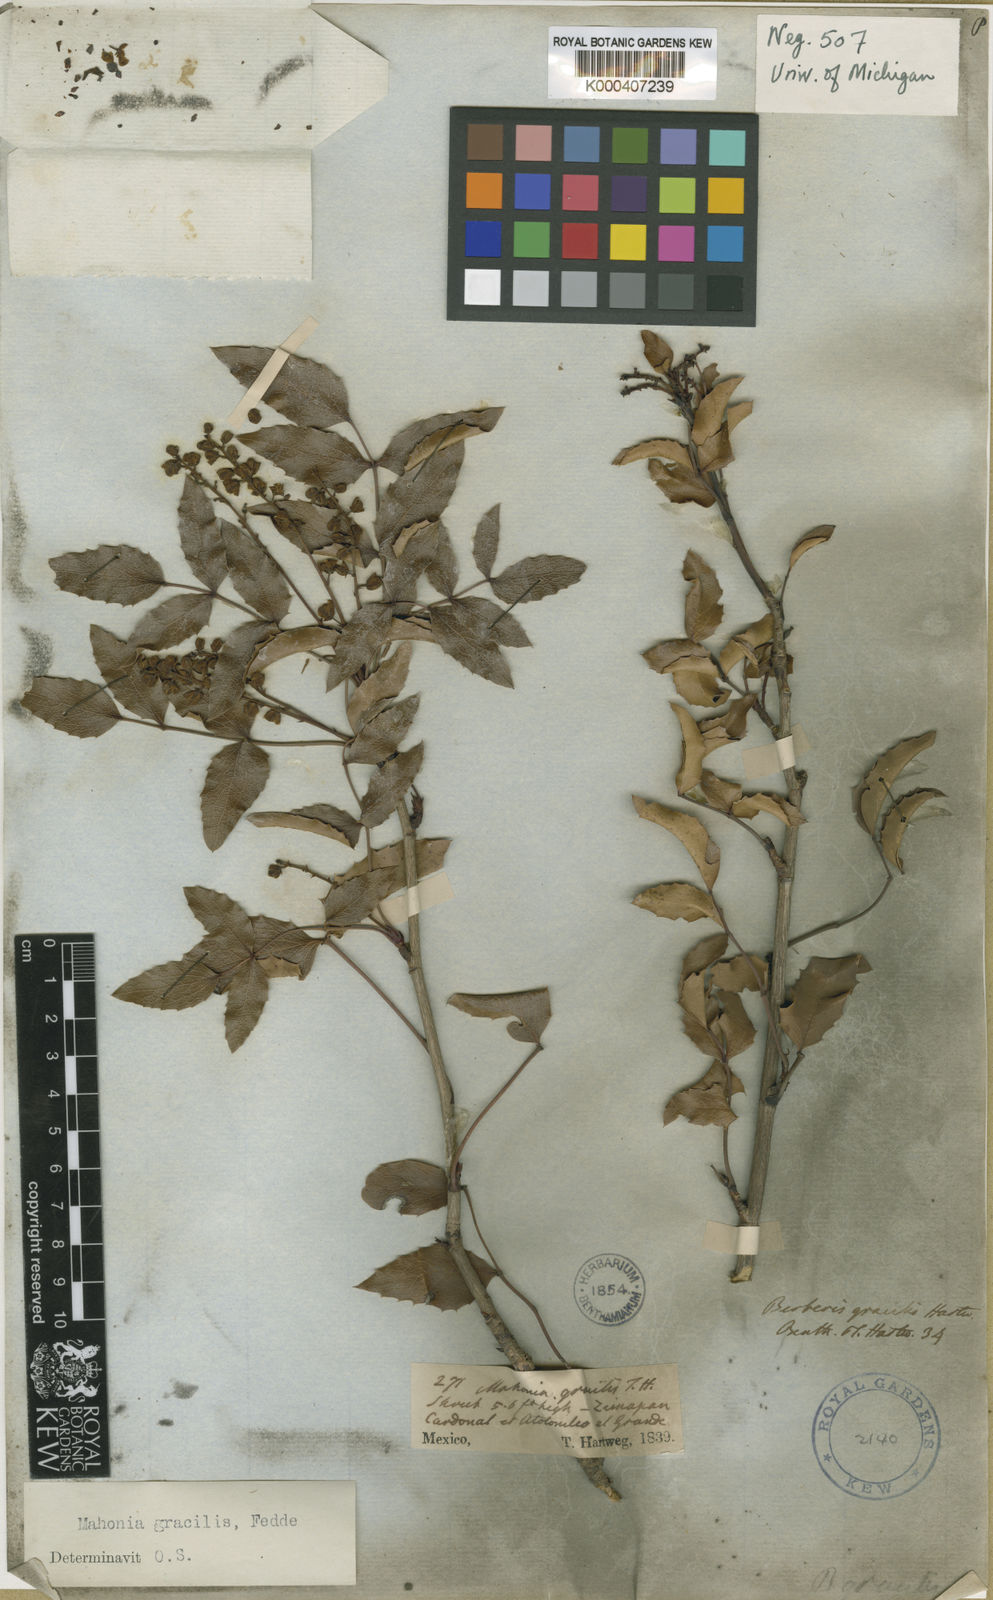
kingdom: Plantae
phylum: Tracheophyta
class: Magnoliopsida
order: Ranunculales
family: Berberidaceae
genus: Mahonia
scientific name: Mahonia gracilis
